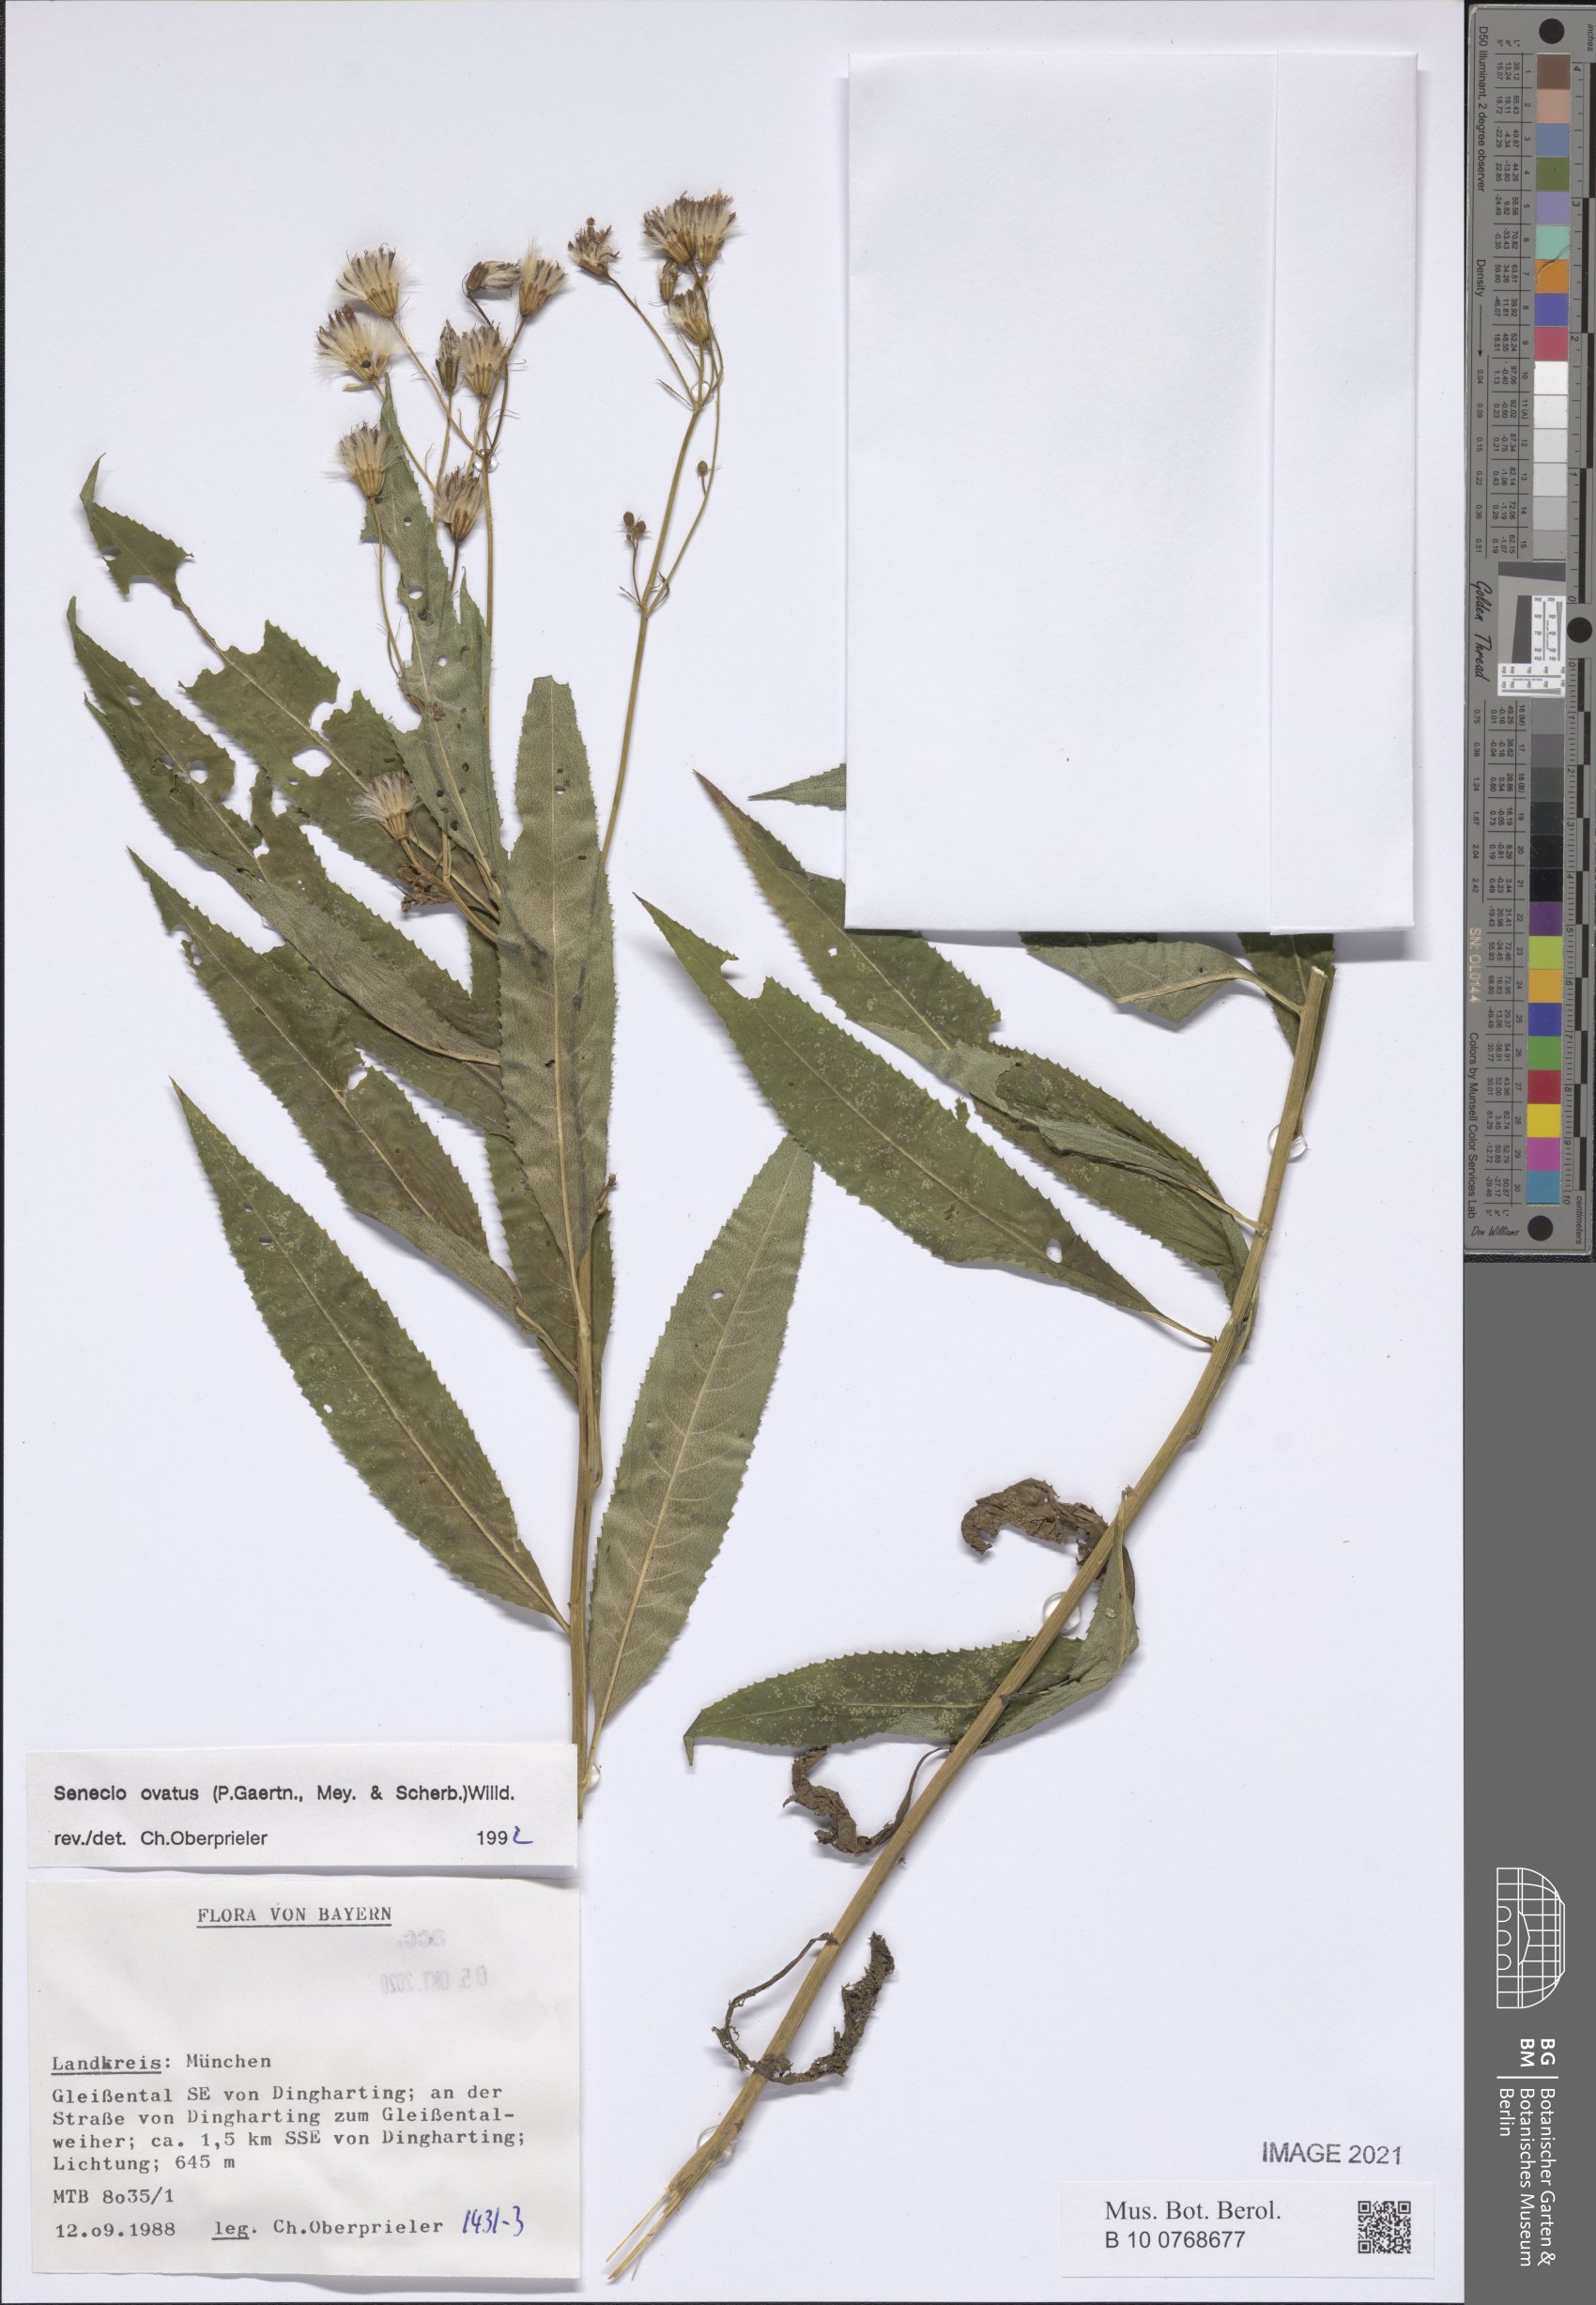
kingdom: Plantae
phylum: Tracheophyta
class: Magnoliopsida
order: Asterales
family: Asteraceae
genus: Senecio
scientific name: Senecio ovatus
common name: Wood ragwort
